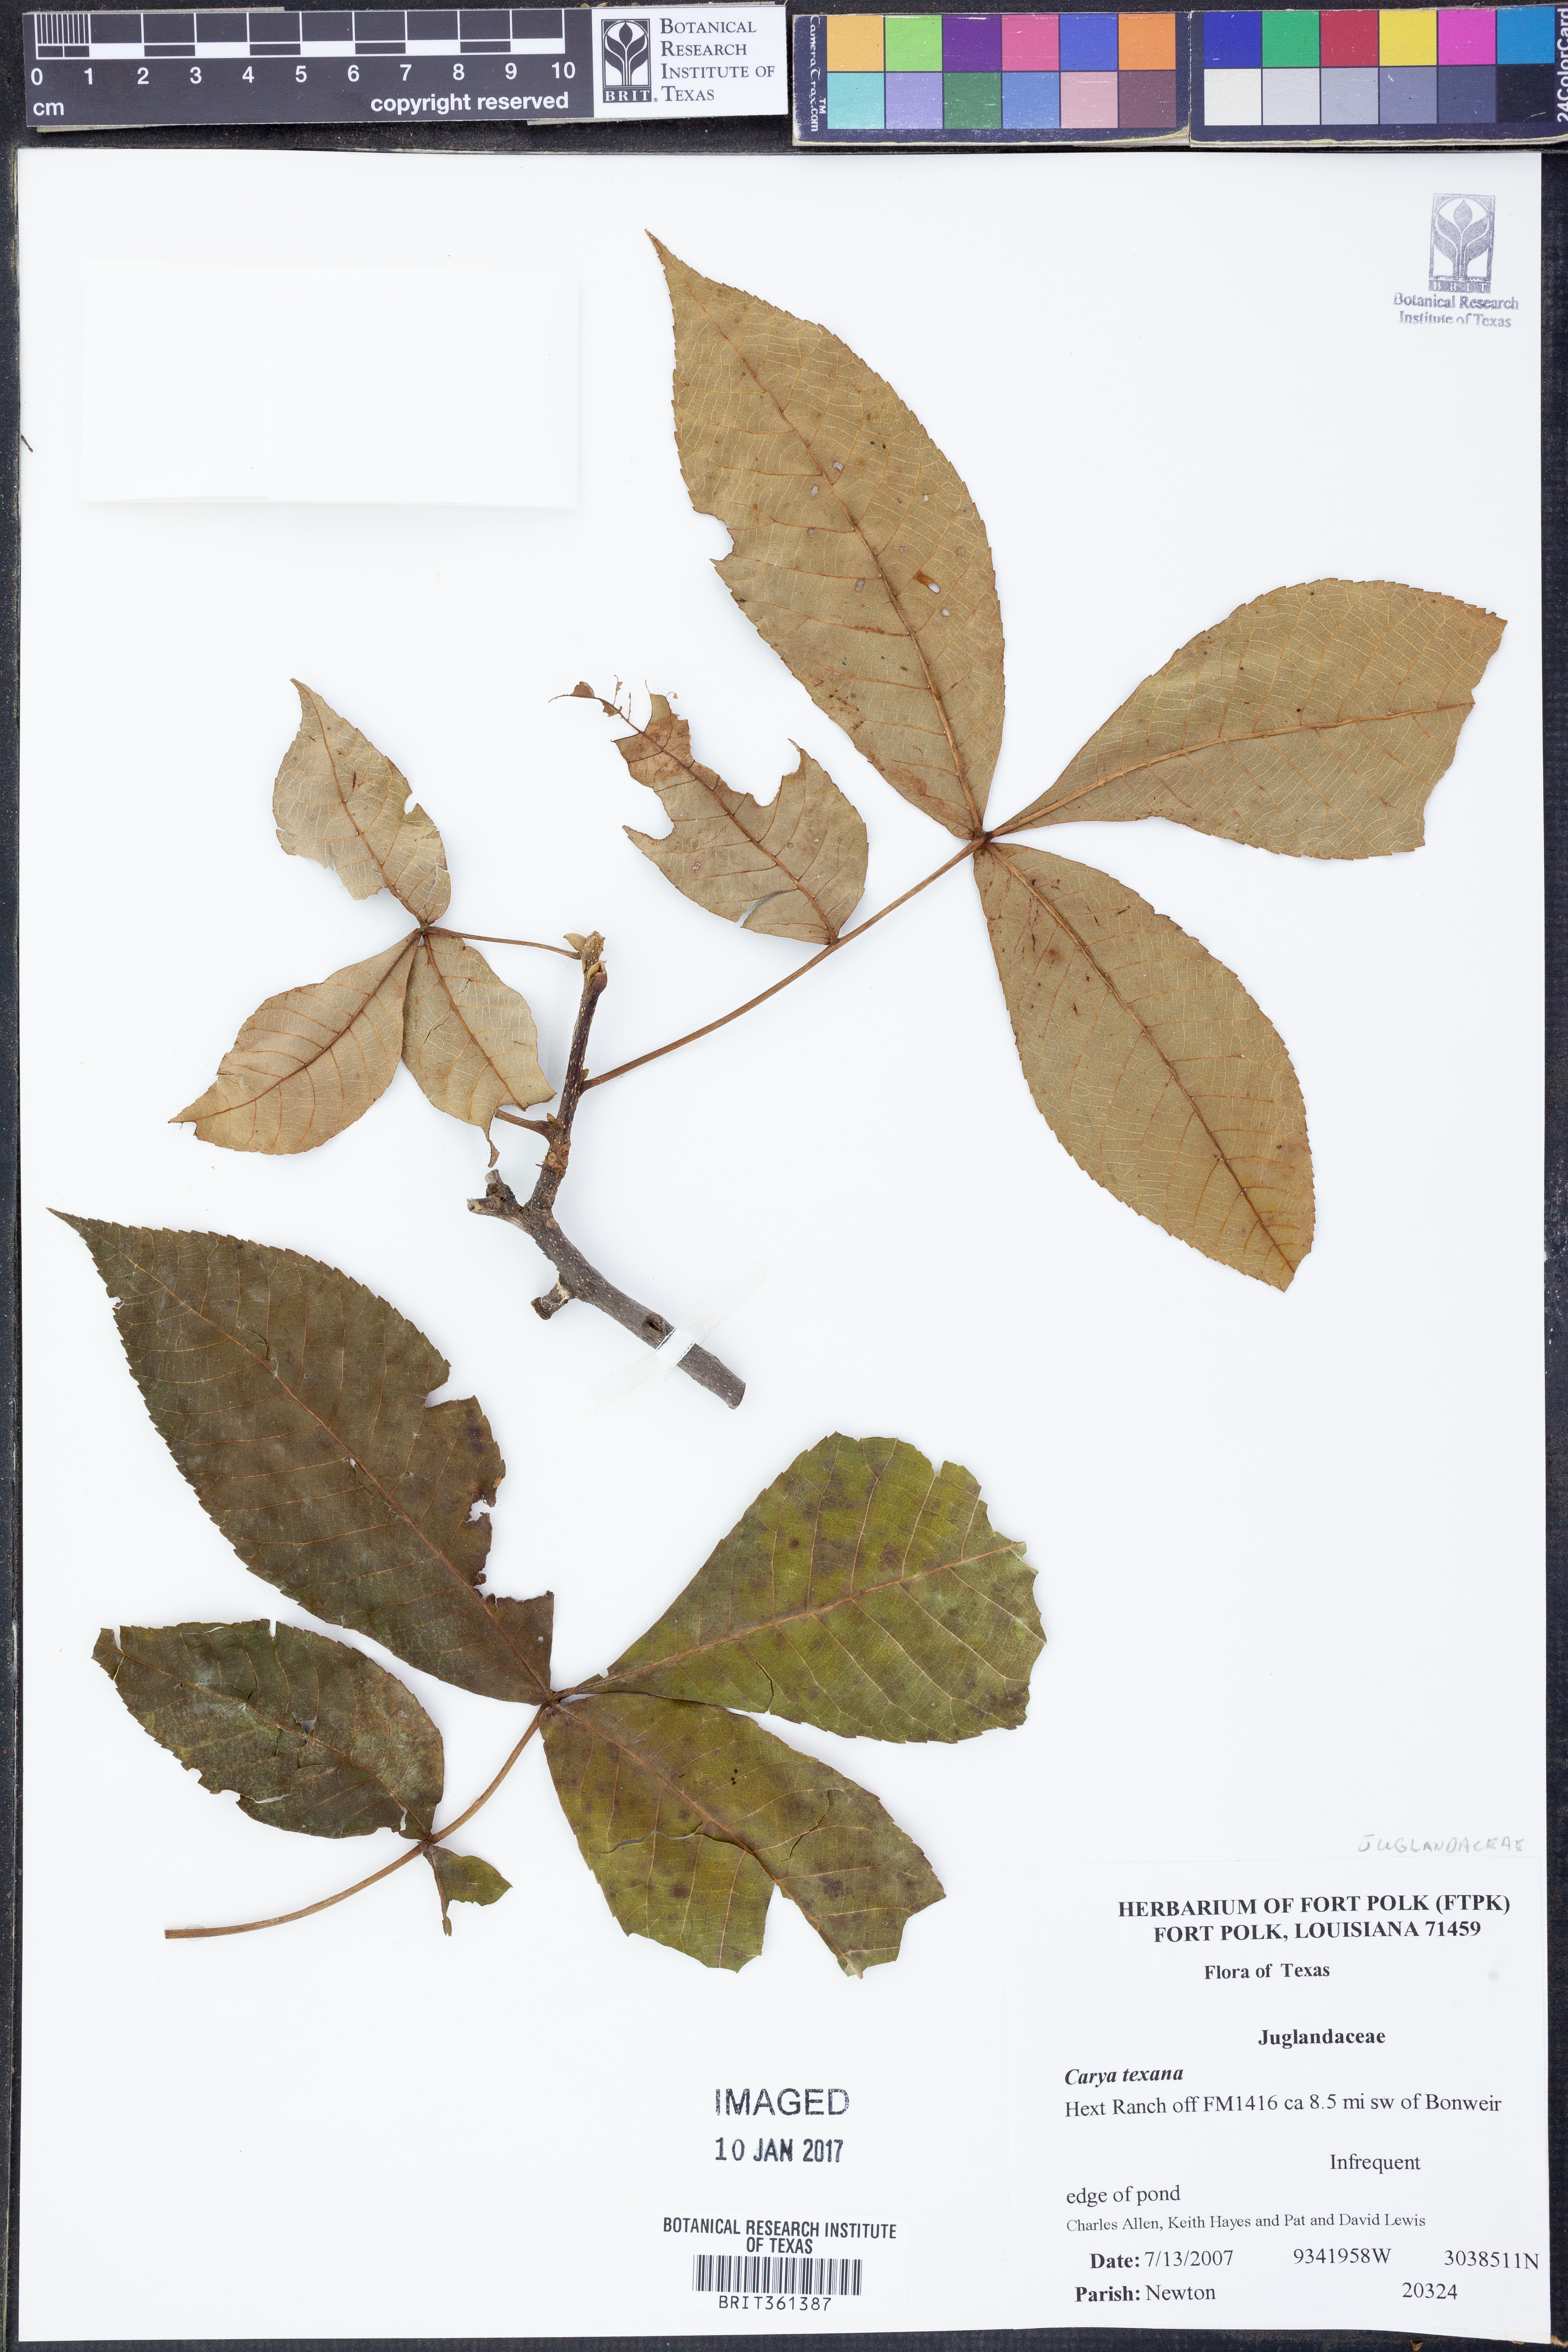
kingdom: Plantae
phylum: Tracheophyta
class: Magnoliopsida
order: Fagales
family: Juglandaceae
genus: Carya
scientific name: Carya texana
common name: Black hickory
